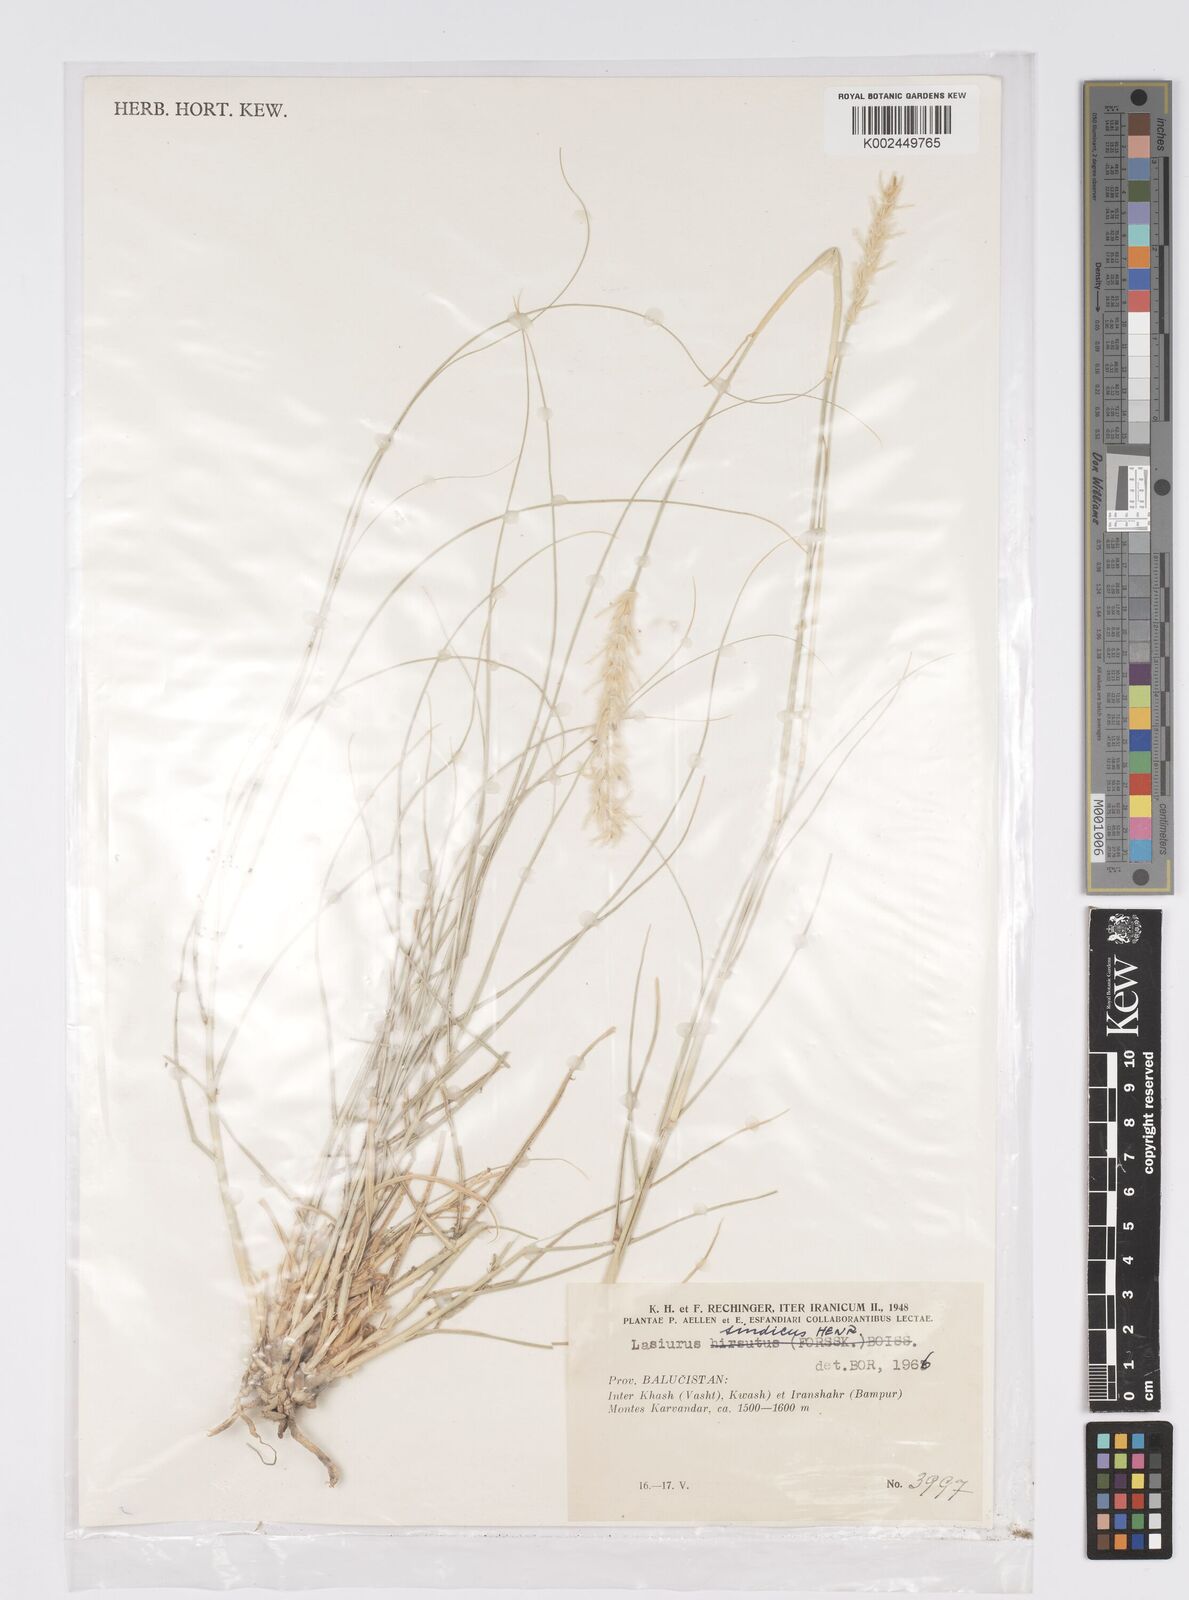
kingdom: Plantae
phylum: Tracheophyta
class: Liliopsida
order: Poales
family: Poaceae
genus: Lasiurus
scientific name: Lasiurus scindicus
